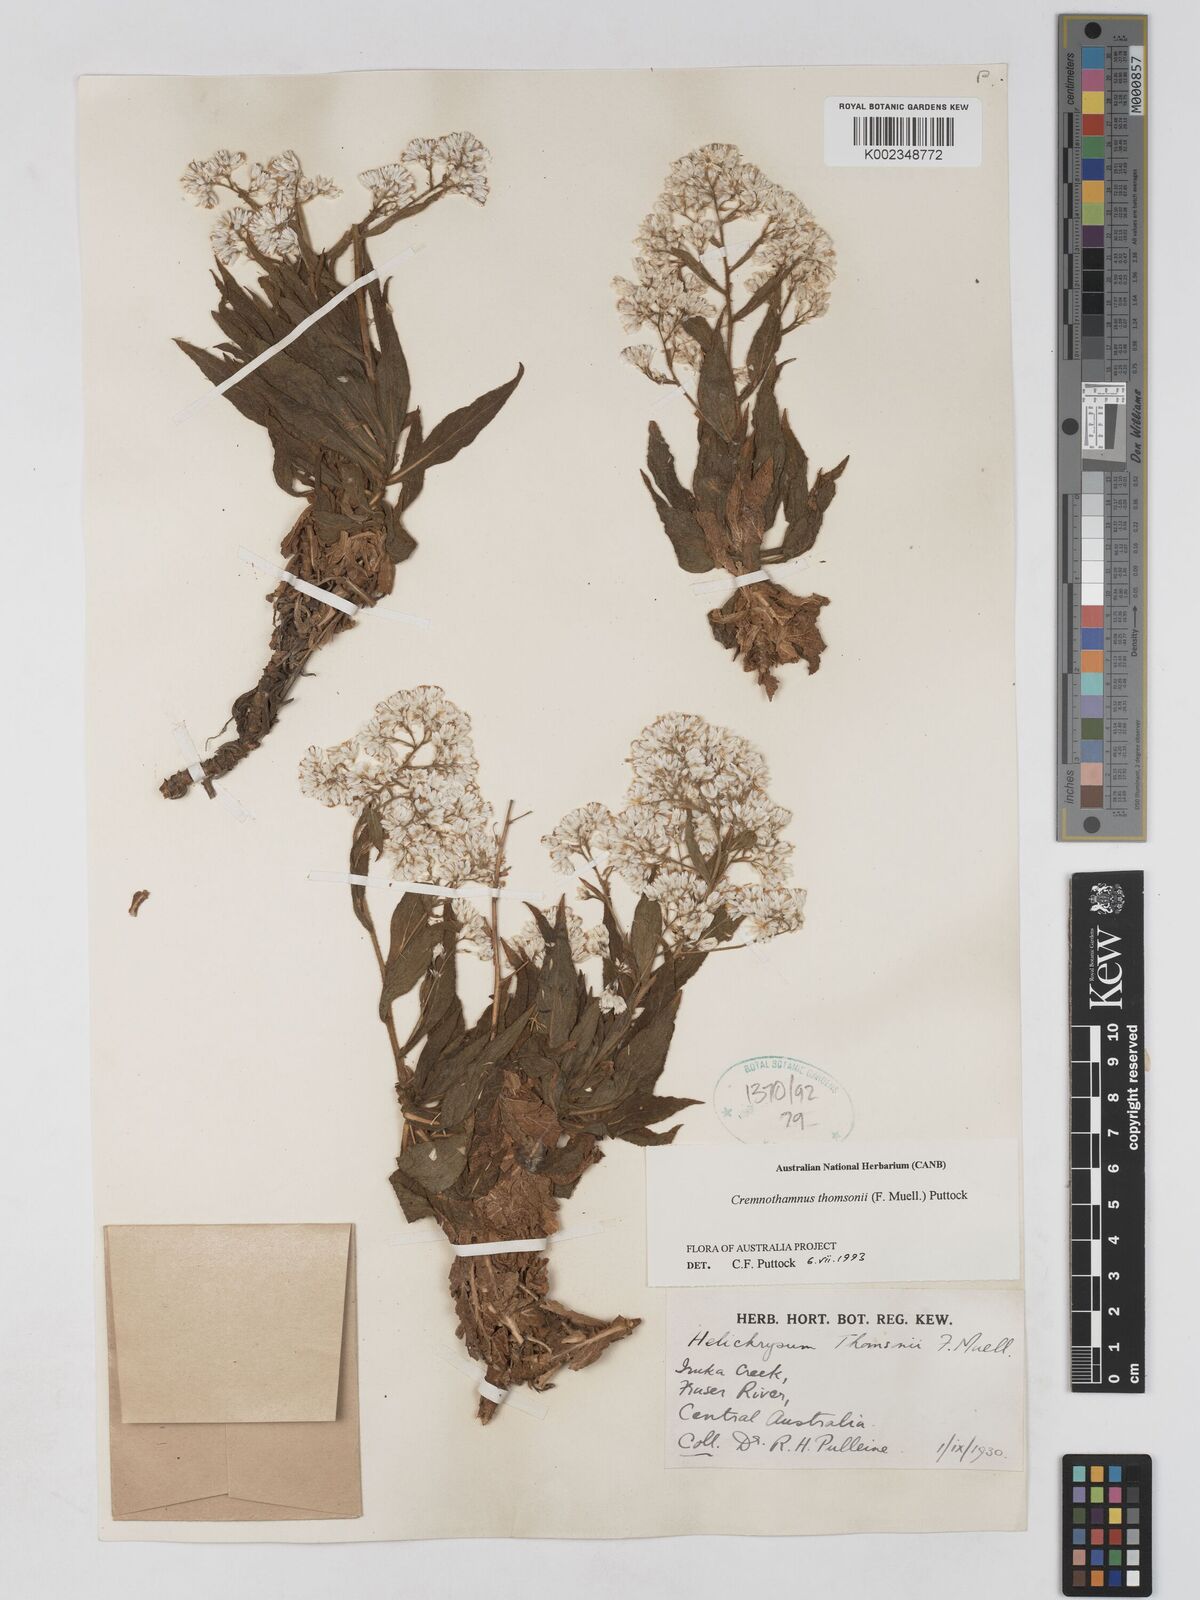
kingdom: Plantae
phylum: Tracheophyta
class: Magnoliopsida
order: Asterales
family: Asteraceae
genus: Cremnothamnus
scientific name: Cremnothamnus thomsonii
